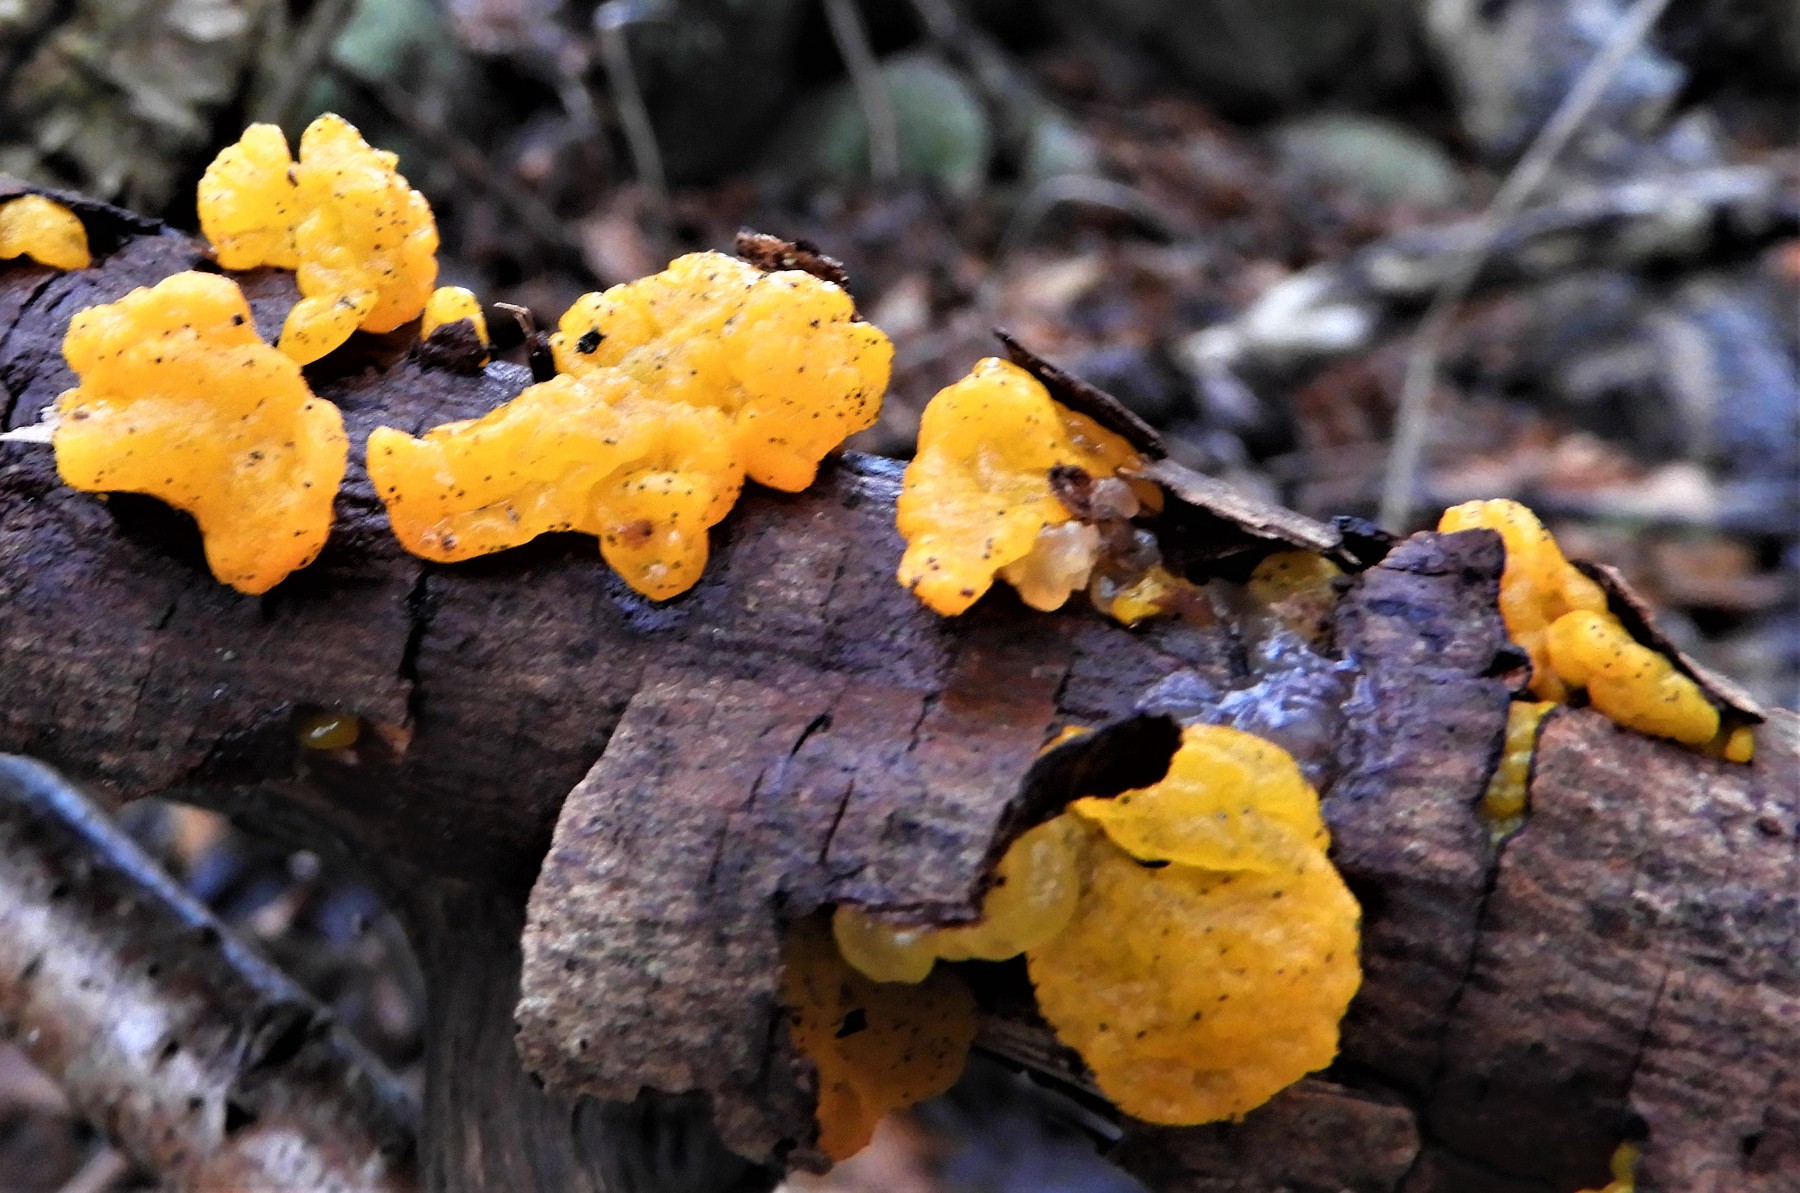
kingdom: Fungi
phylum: Basidiomycota
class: Tremellomycetes
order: Tremellales
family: Tremellaceae
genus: Tremella
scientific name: Tremella mesenterica
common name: gul bævresvamp
